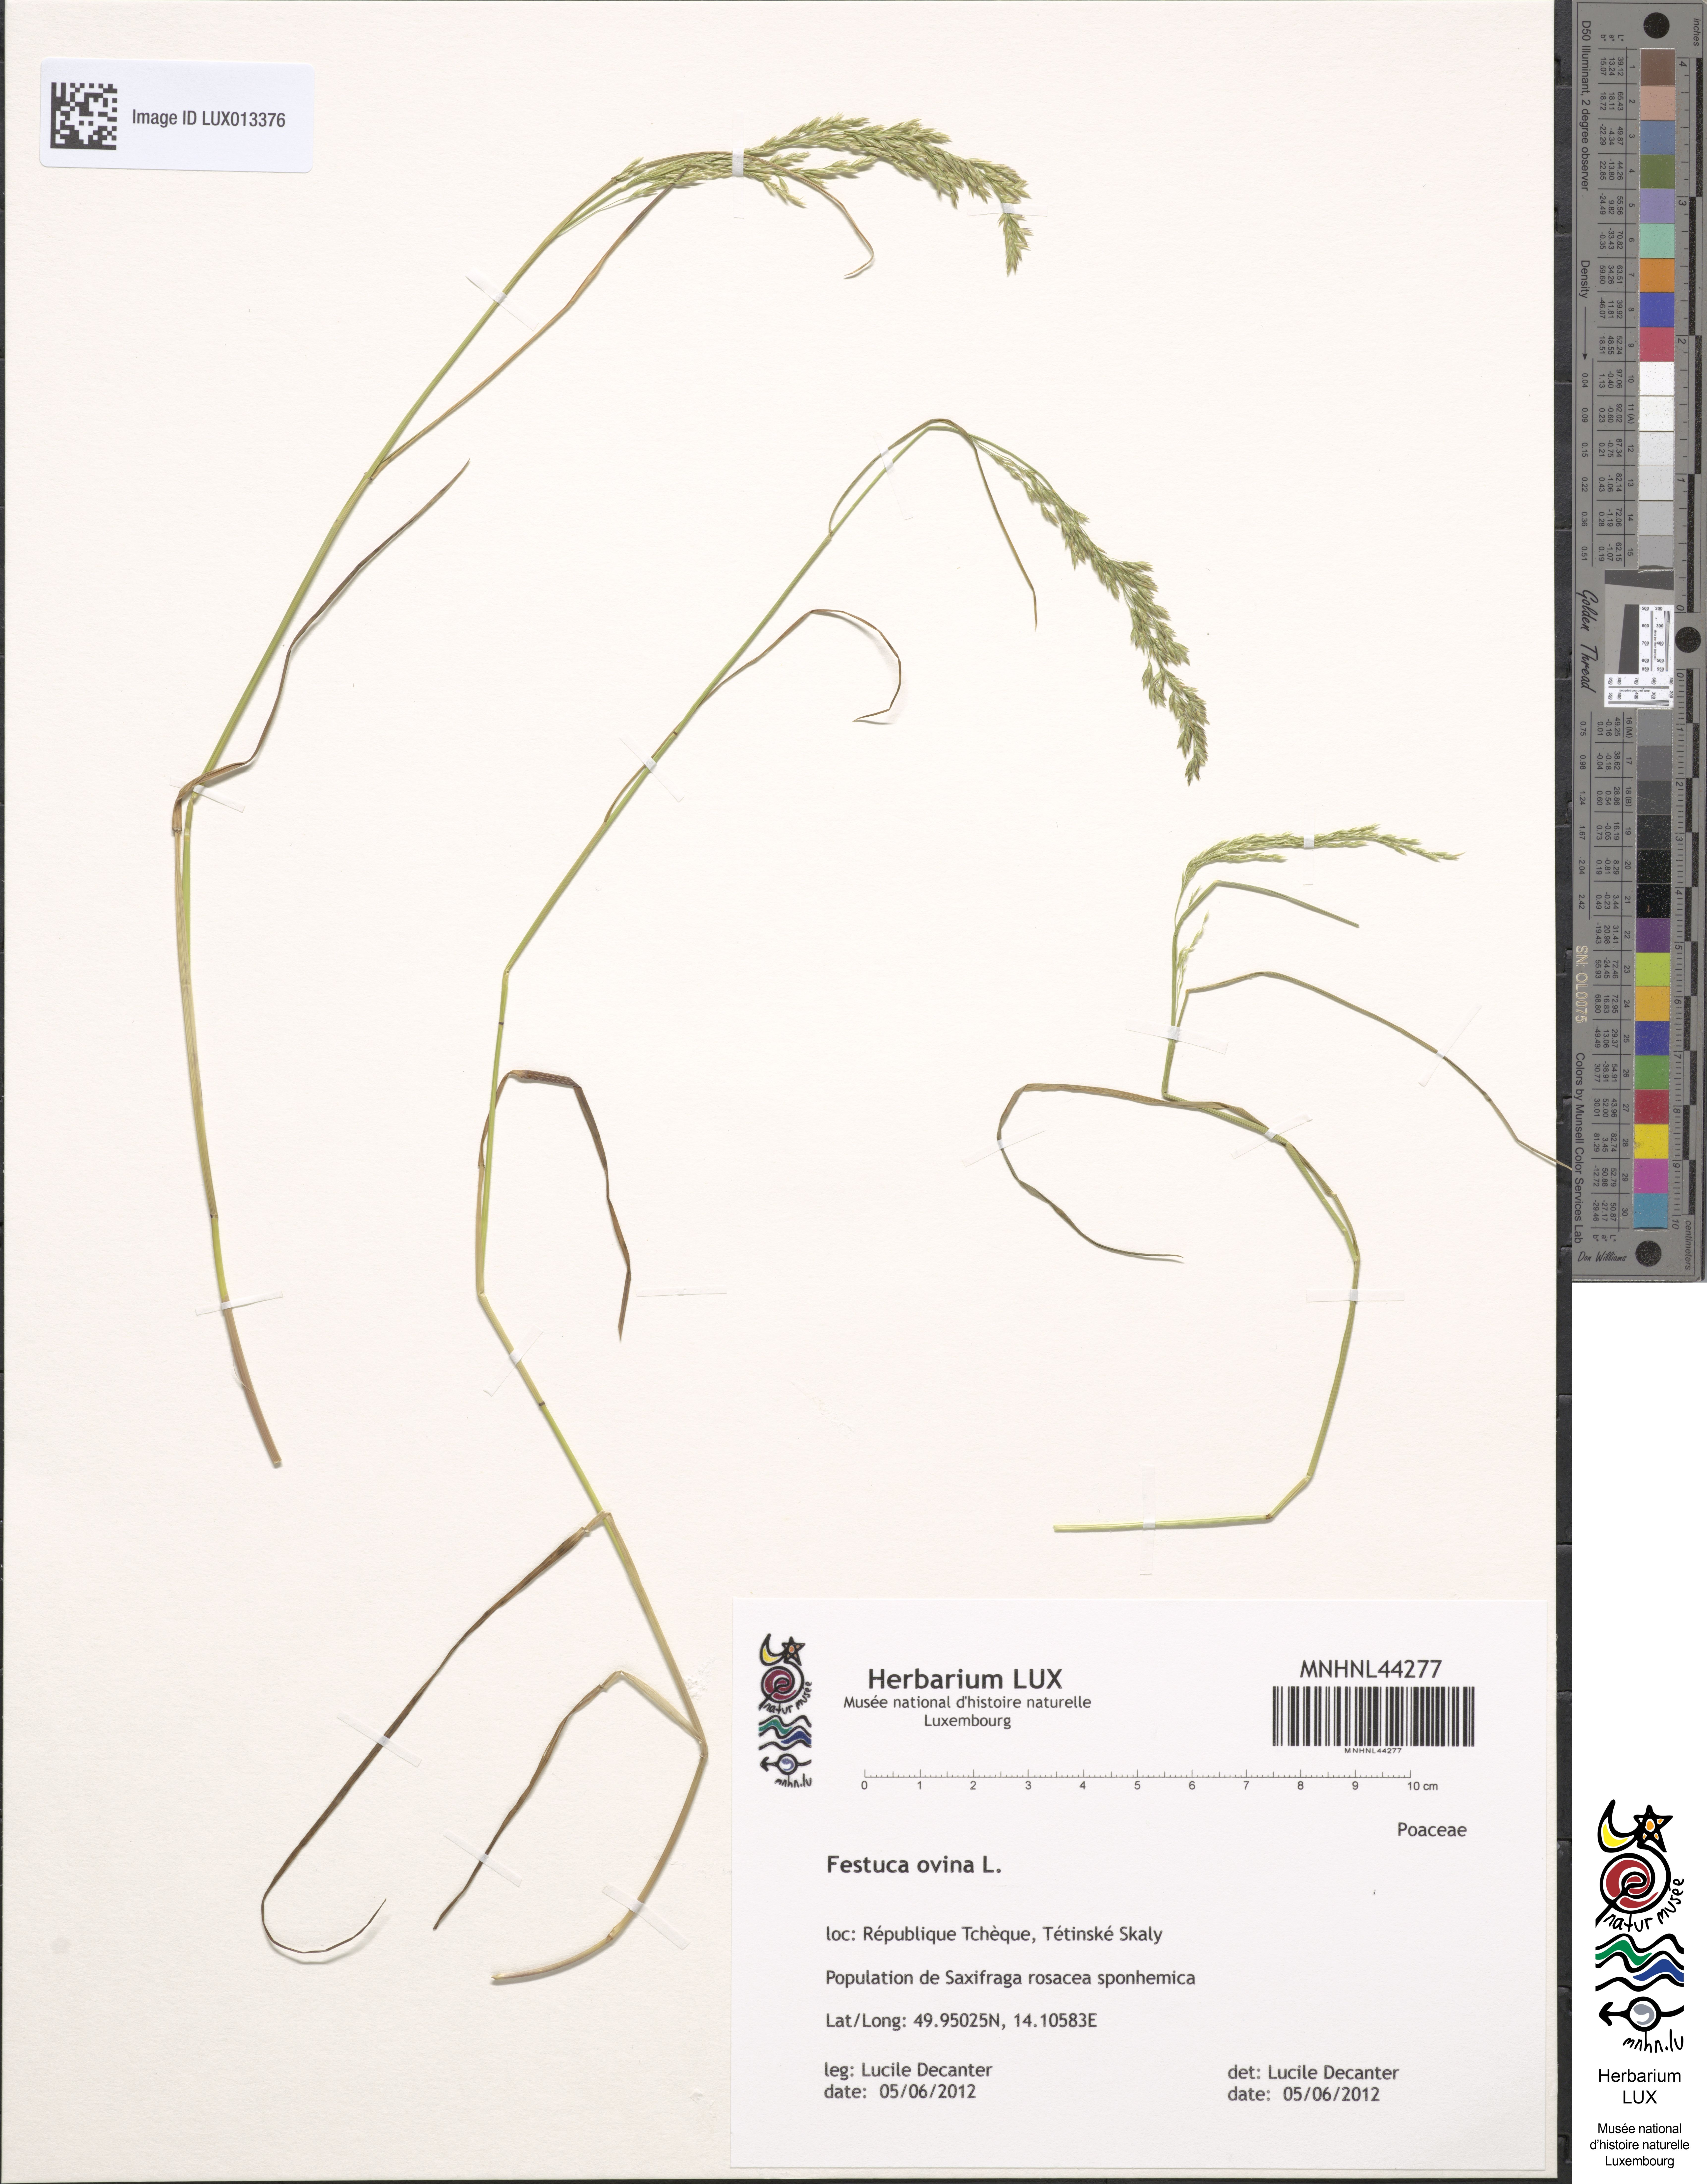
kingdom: Plantae
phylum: Tracheophyta
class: Liliopsida
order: Poales
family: Poaceae
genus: Festuca
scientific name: Festuca ovina
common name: Sheep fescue
